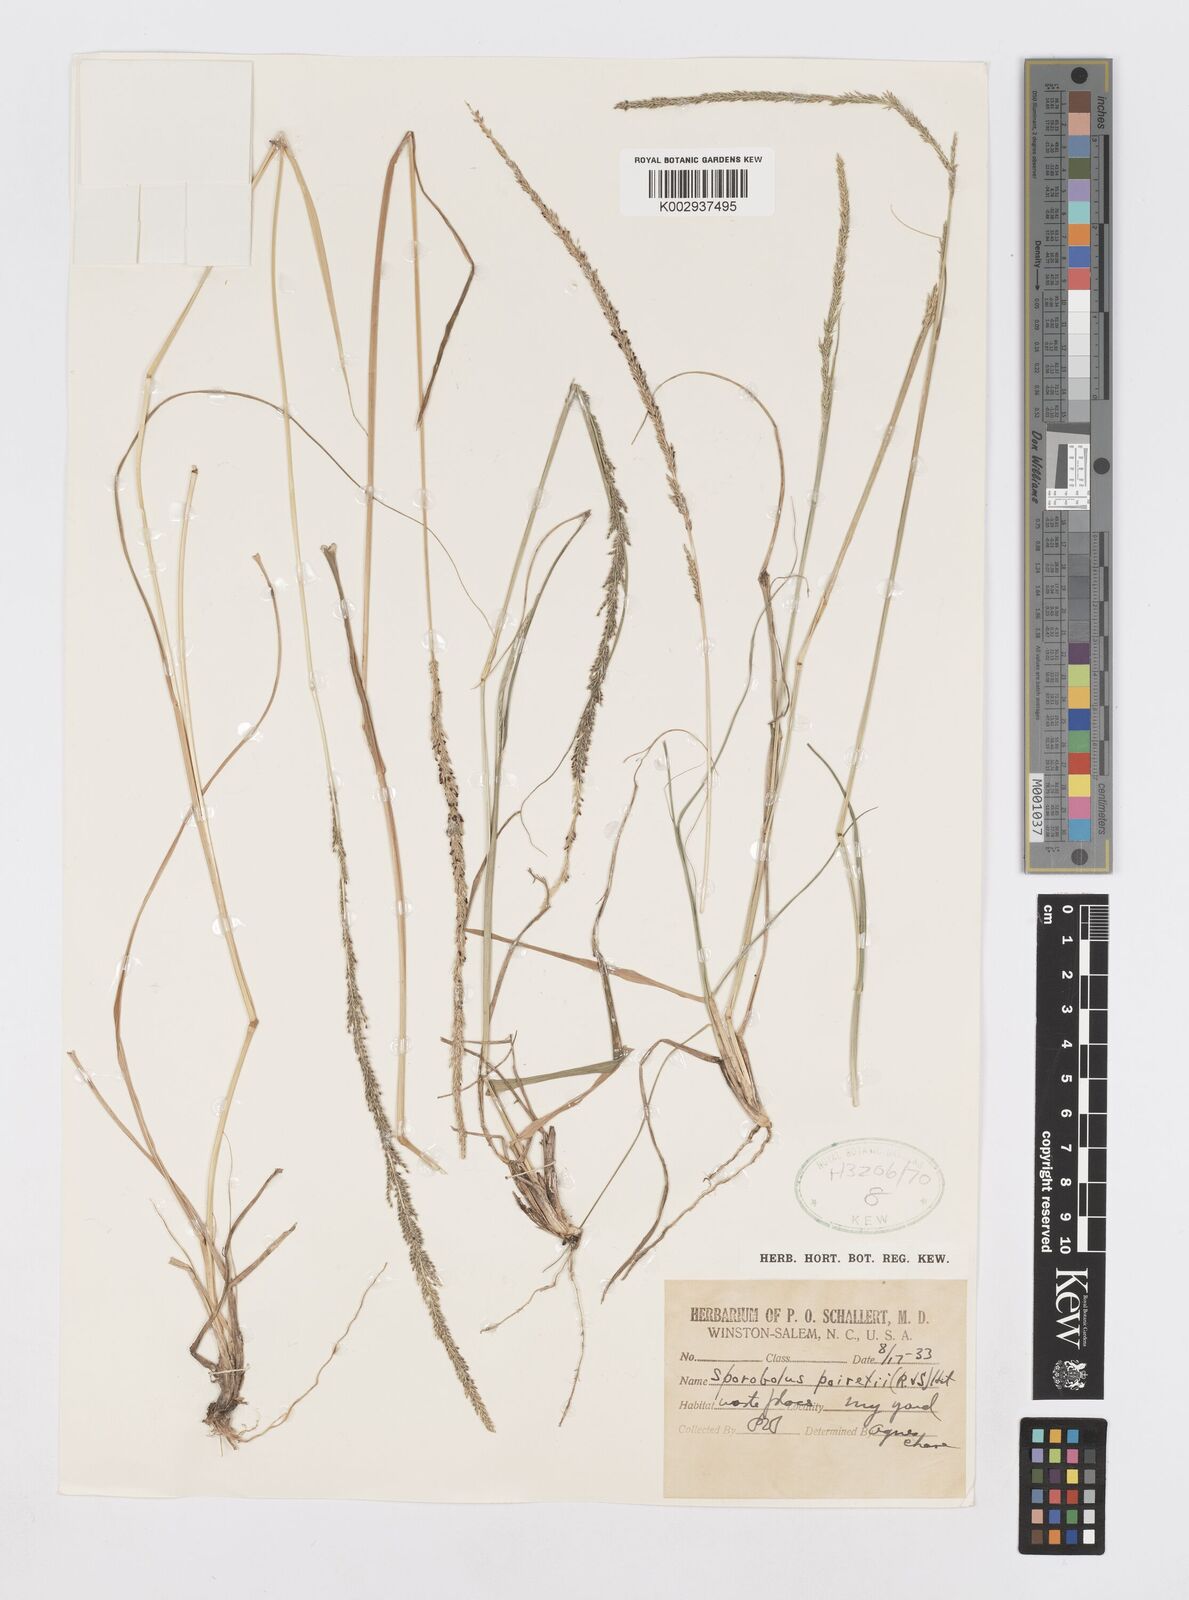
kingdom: Plantae
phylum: Tracheophyta
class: Liliopsida
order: Poales
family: Poaceae
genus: Sporobolus
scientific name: Sporobolus junceus
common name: Lizard grass
